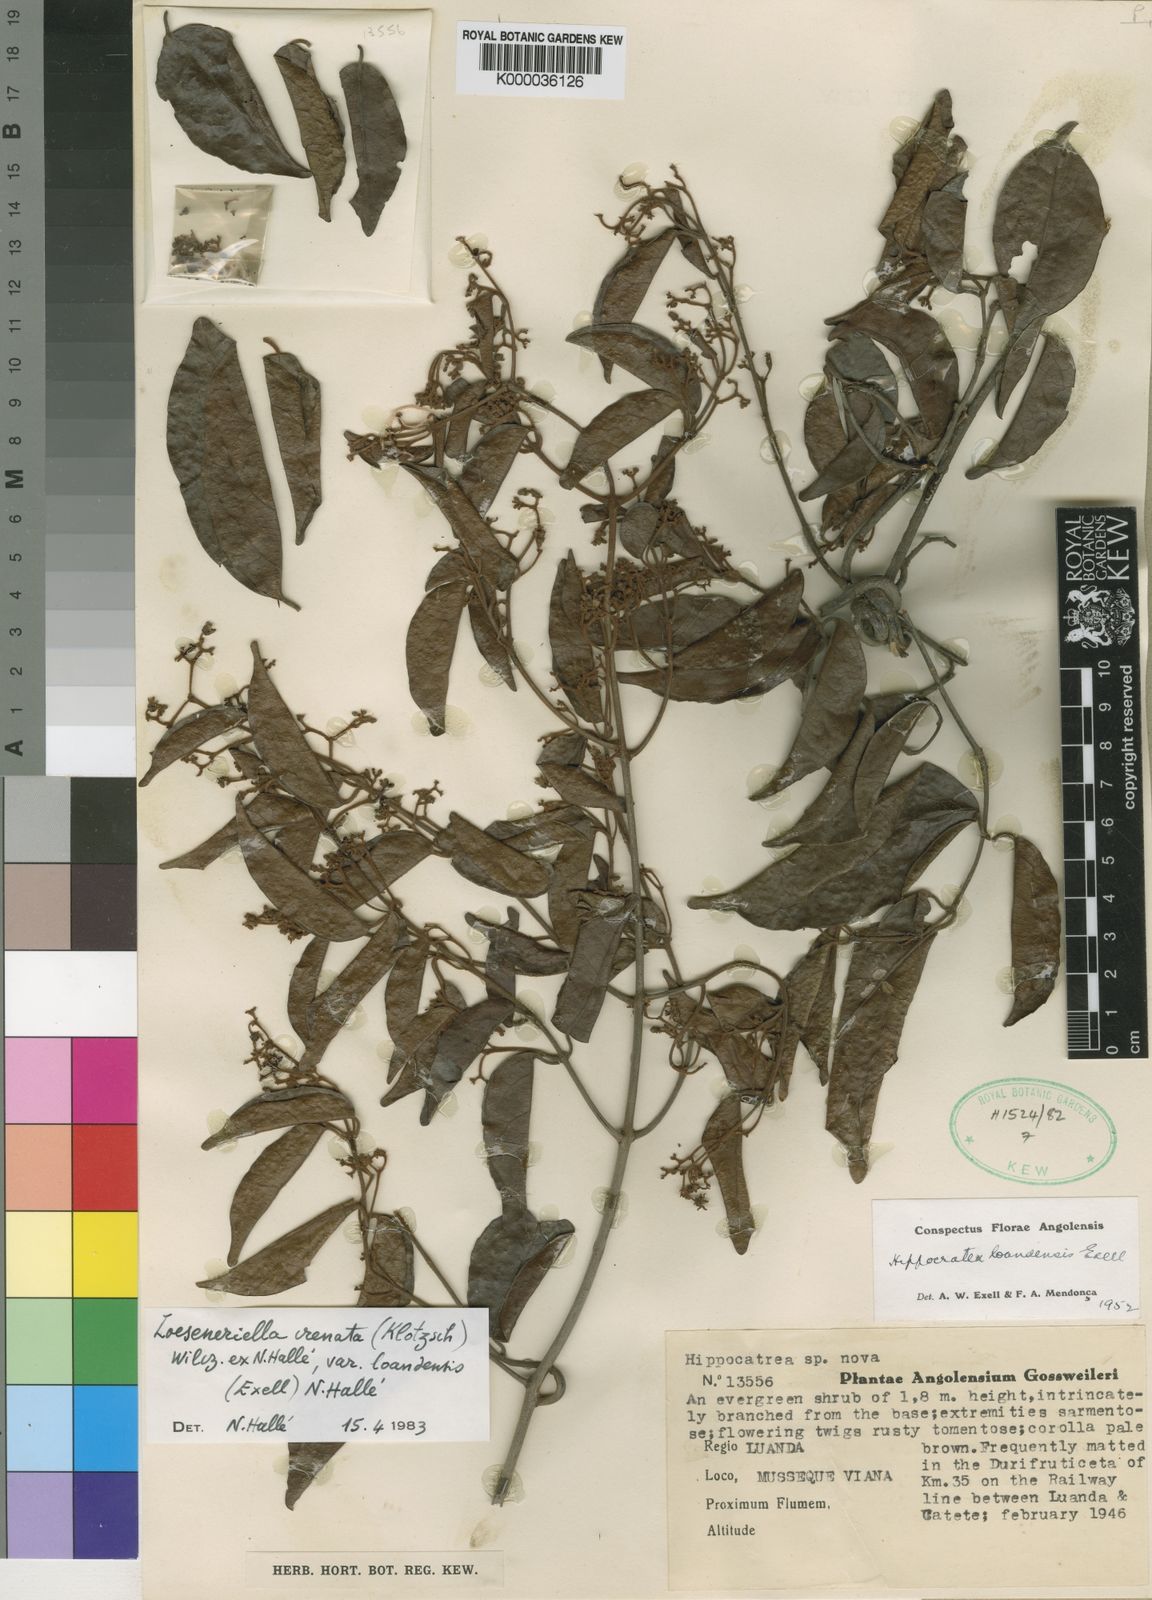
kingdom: Plantae
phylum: Tracheophyta
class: Magnoliopsida
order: Celastrales
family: Celastraceae
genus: Loeseneriella
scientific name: Loeseneriella
